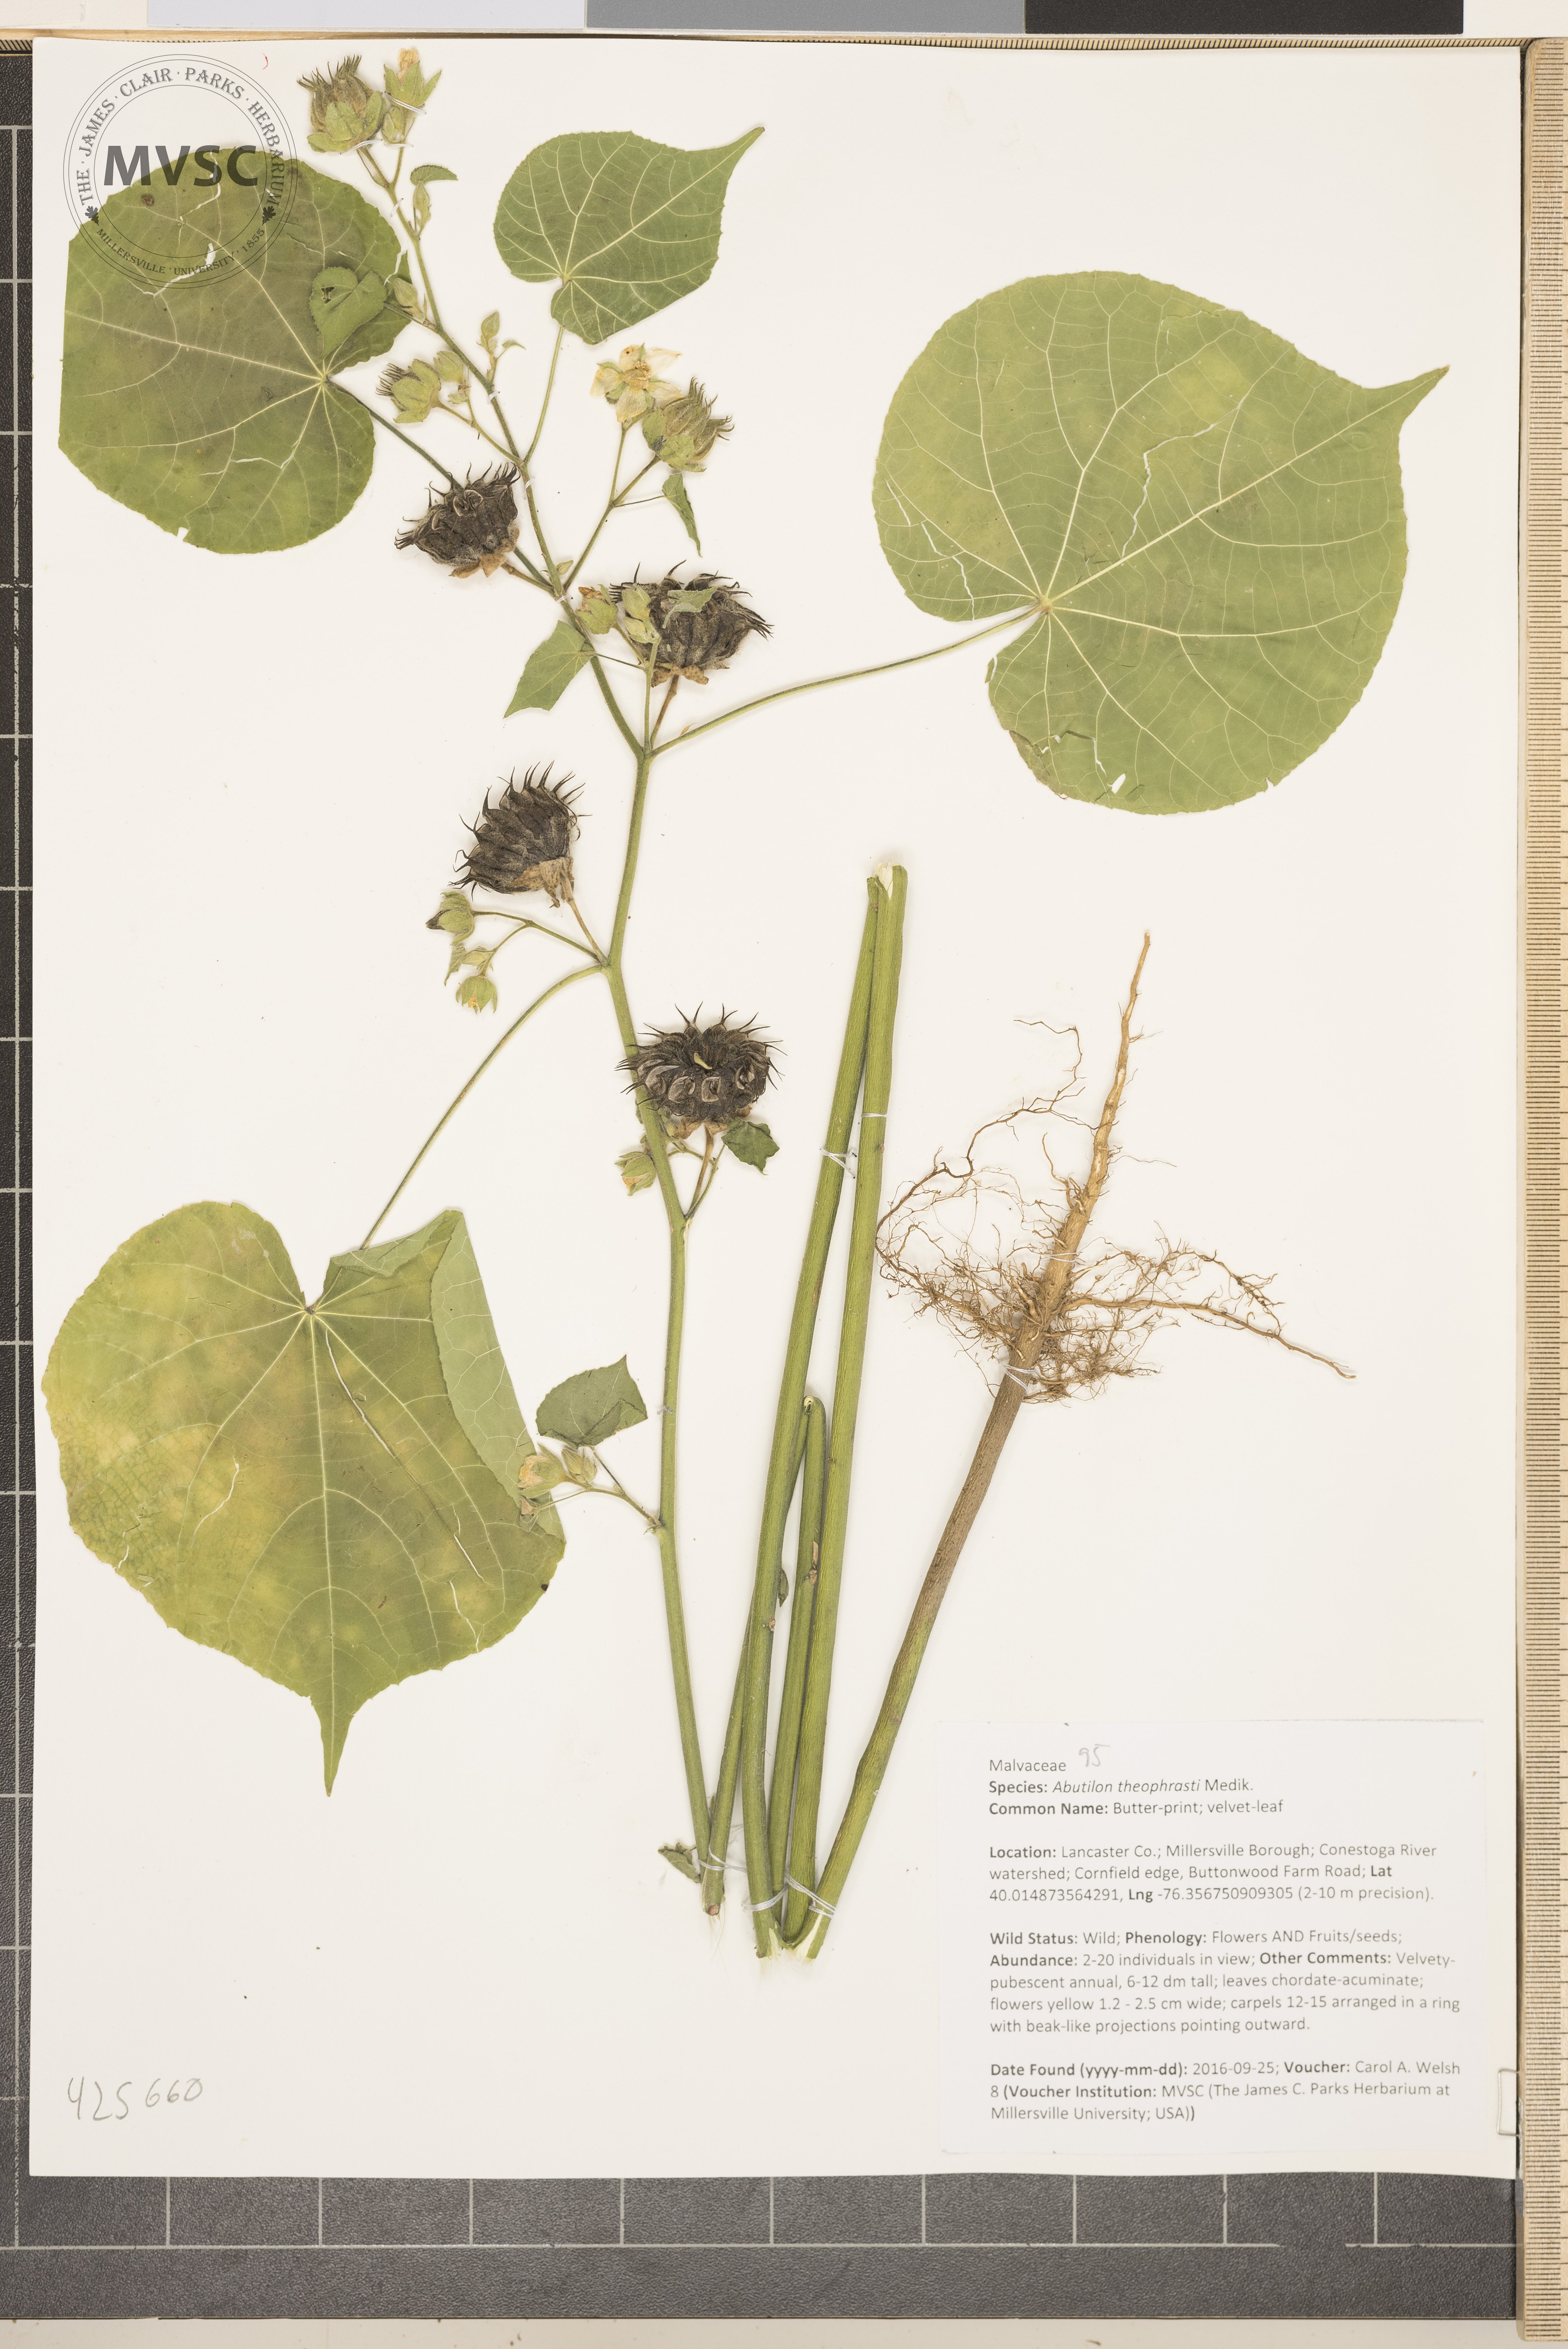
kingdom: Plantae
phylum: Tracheophyta
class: Magnoliopsida
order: Malvales
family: Malvaceae
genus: Abutilon
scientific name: Abutilon theophrasti
